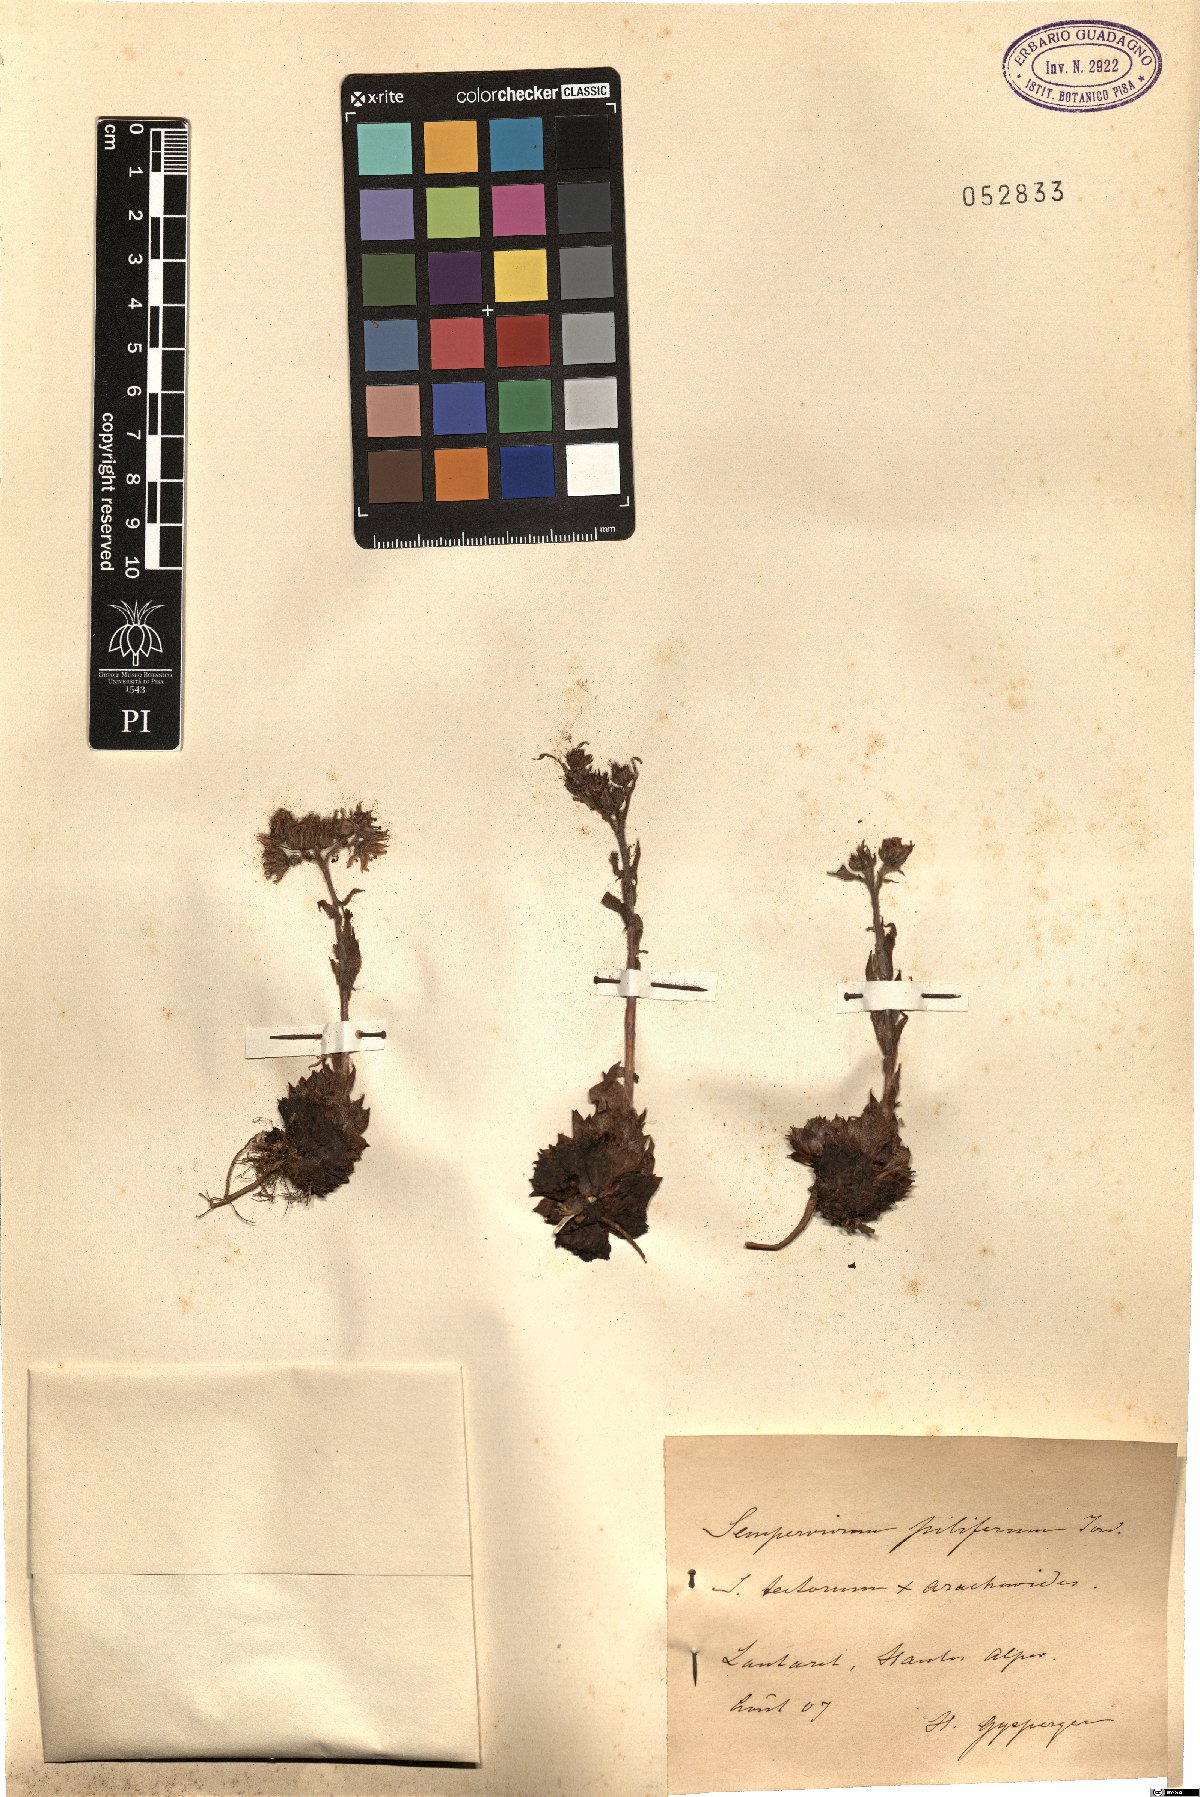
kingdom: Plantae
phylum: Tracheophyta
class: Magnoliopsida
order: Saxifragales
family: Crassulaceae
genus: Sempervivum
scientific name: Sempervivum alatum
